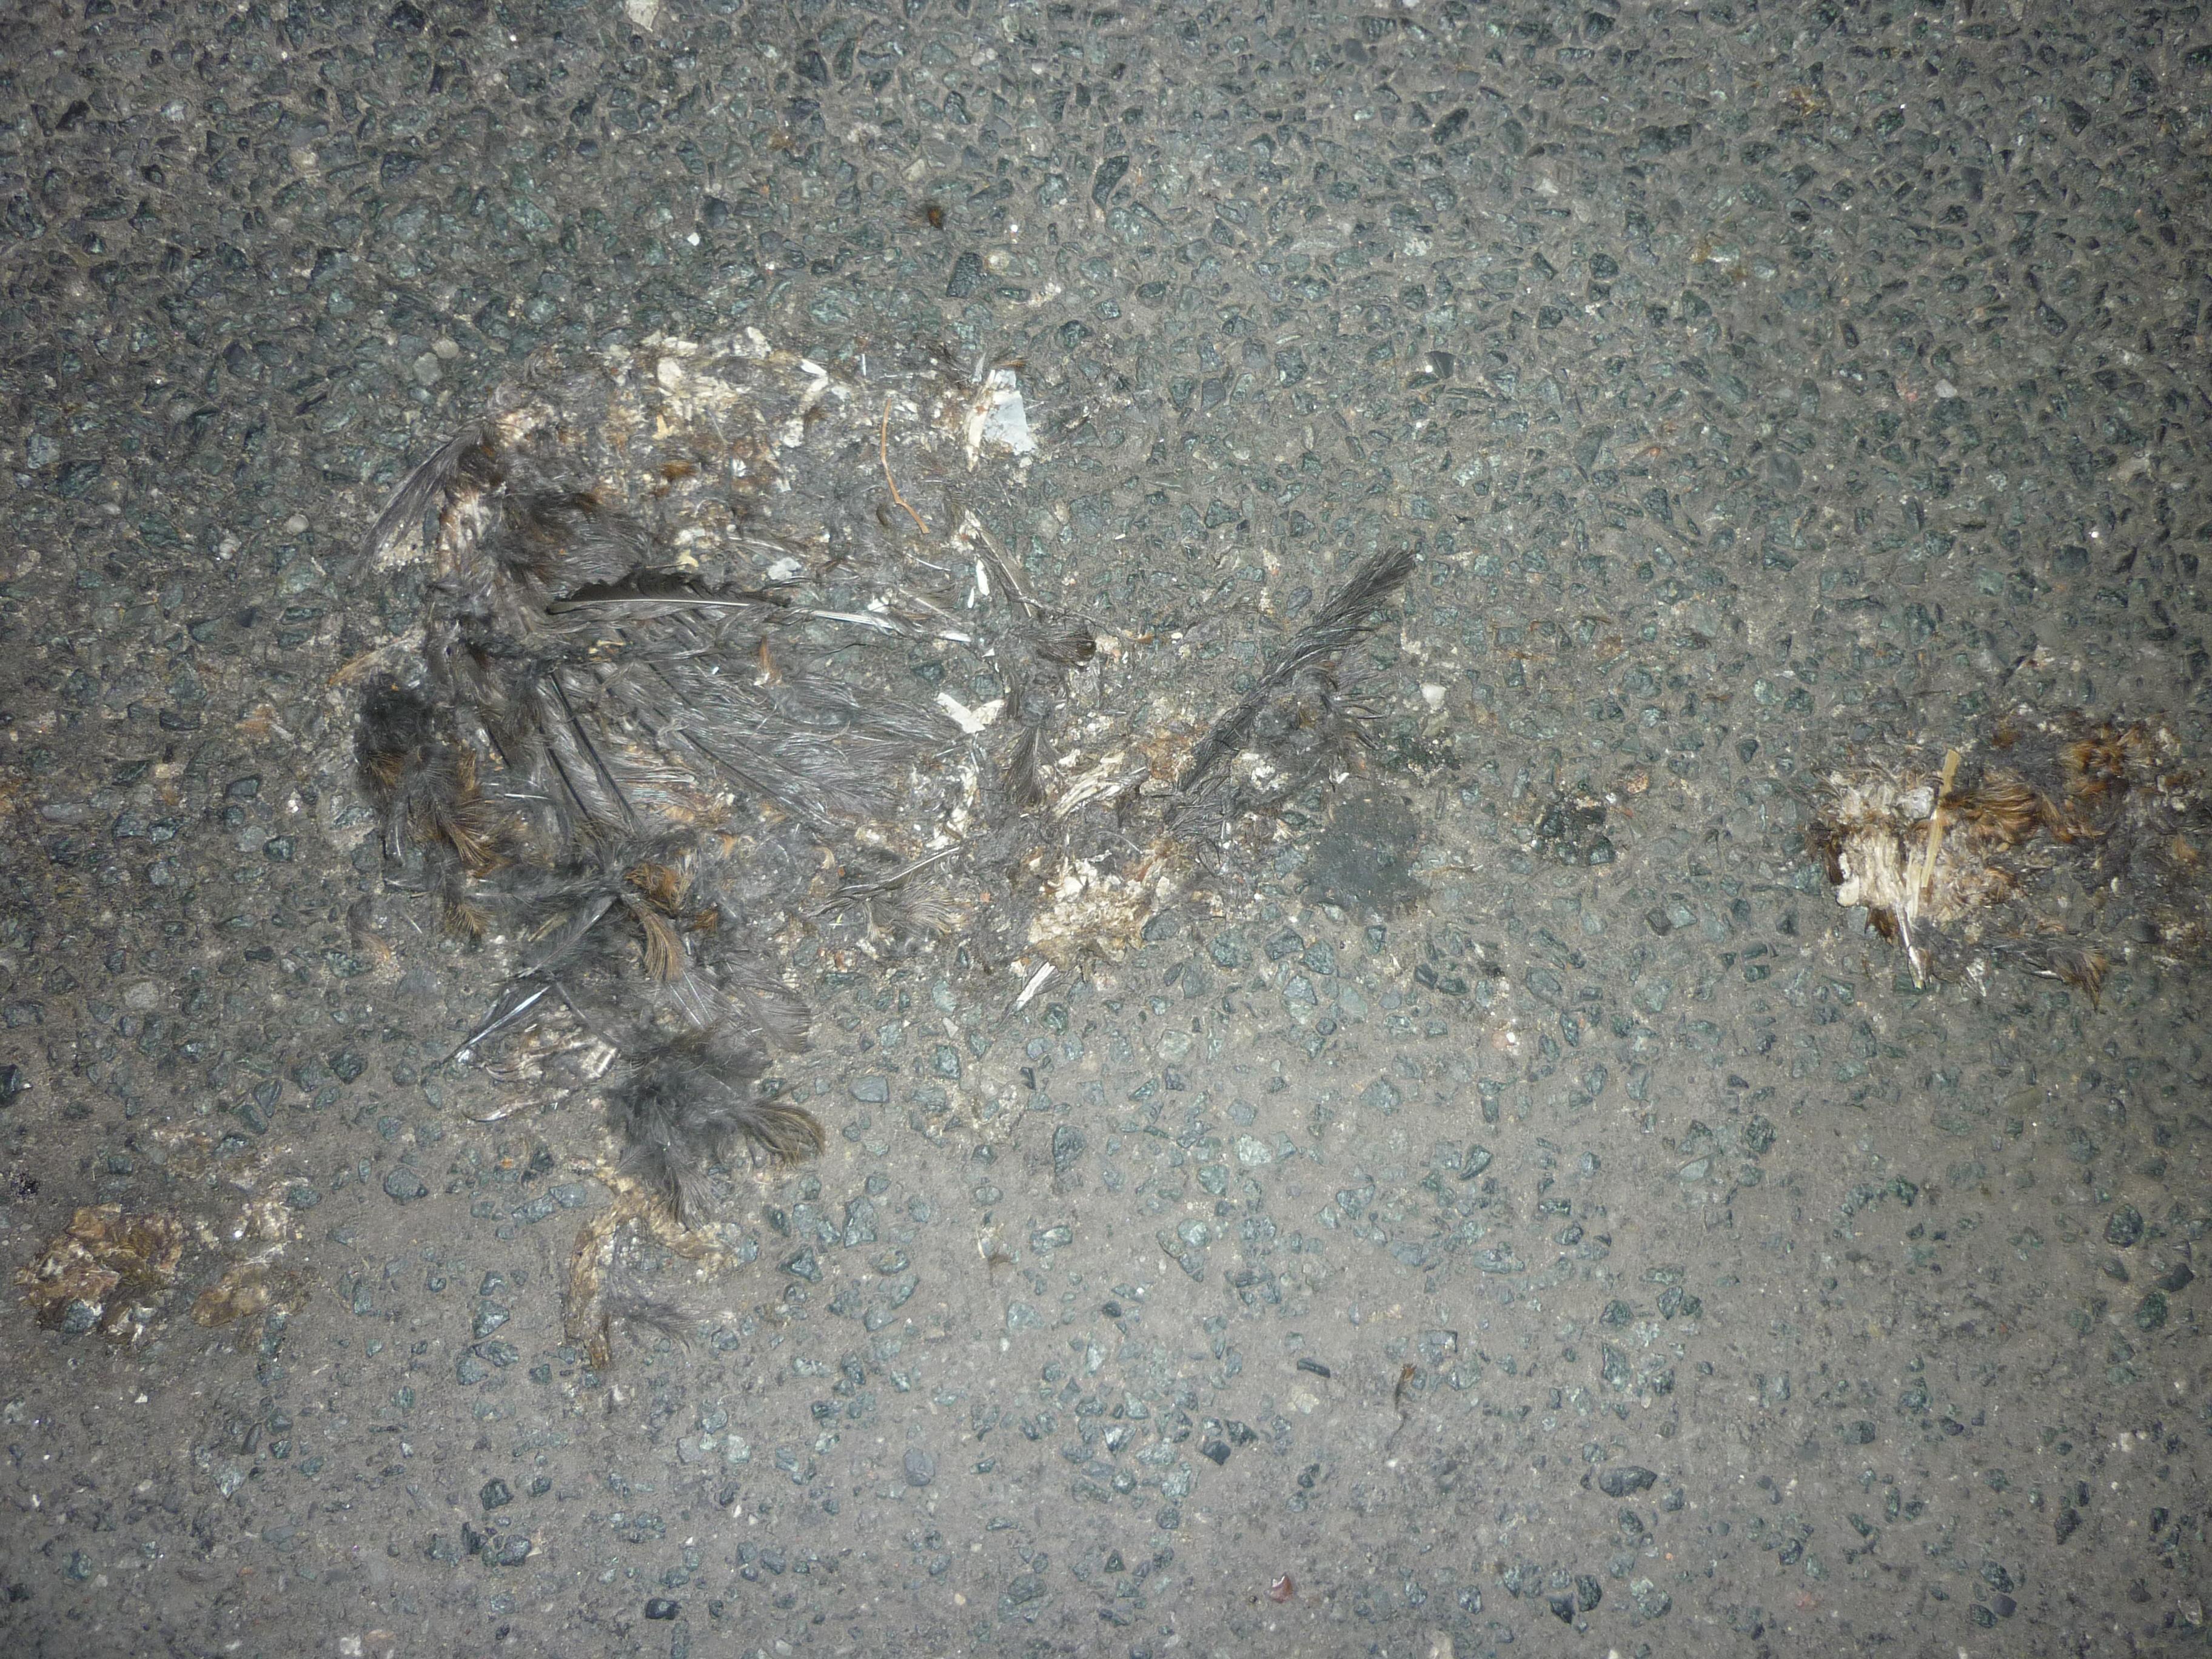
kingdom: Animalia
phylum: Chordata
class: Aves
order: Passeriformes
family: Turdidae
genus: Turdus
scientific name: Turdus merula
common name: Common blackbird
